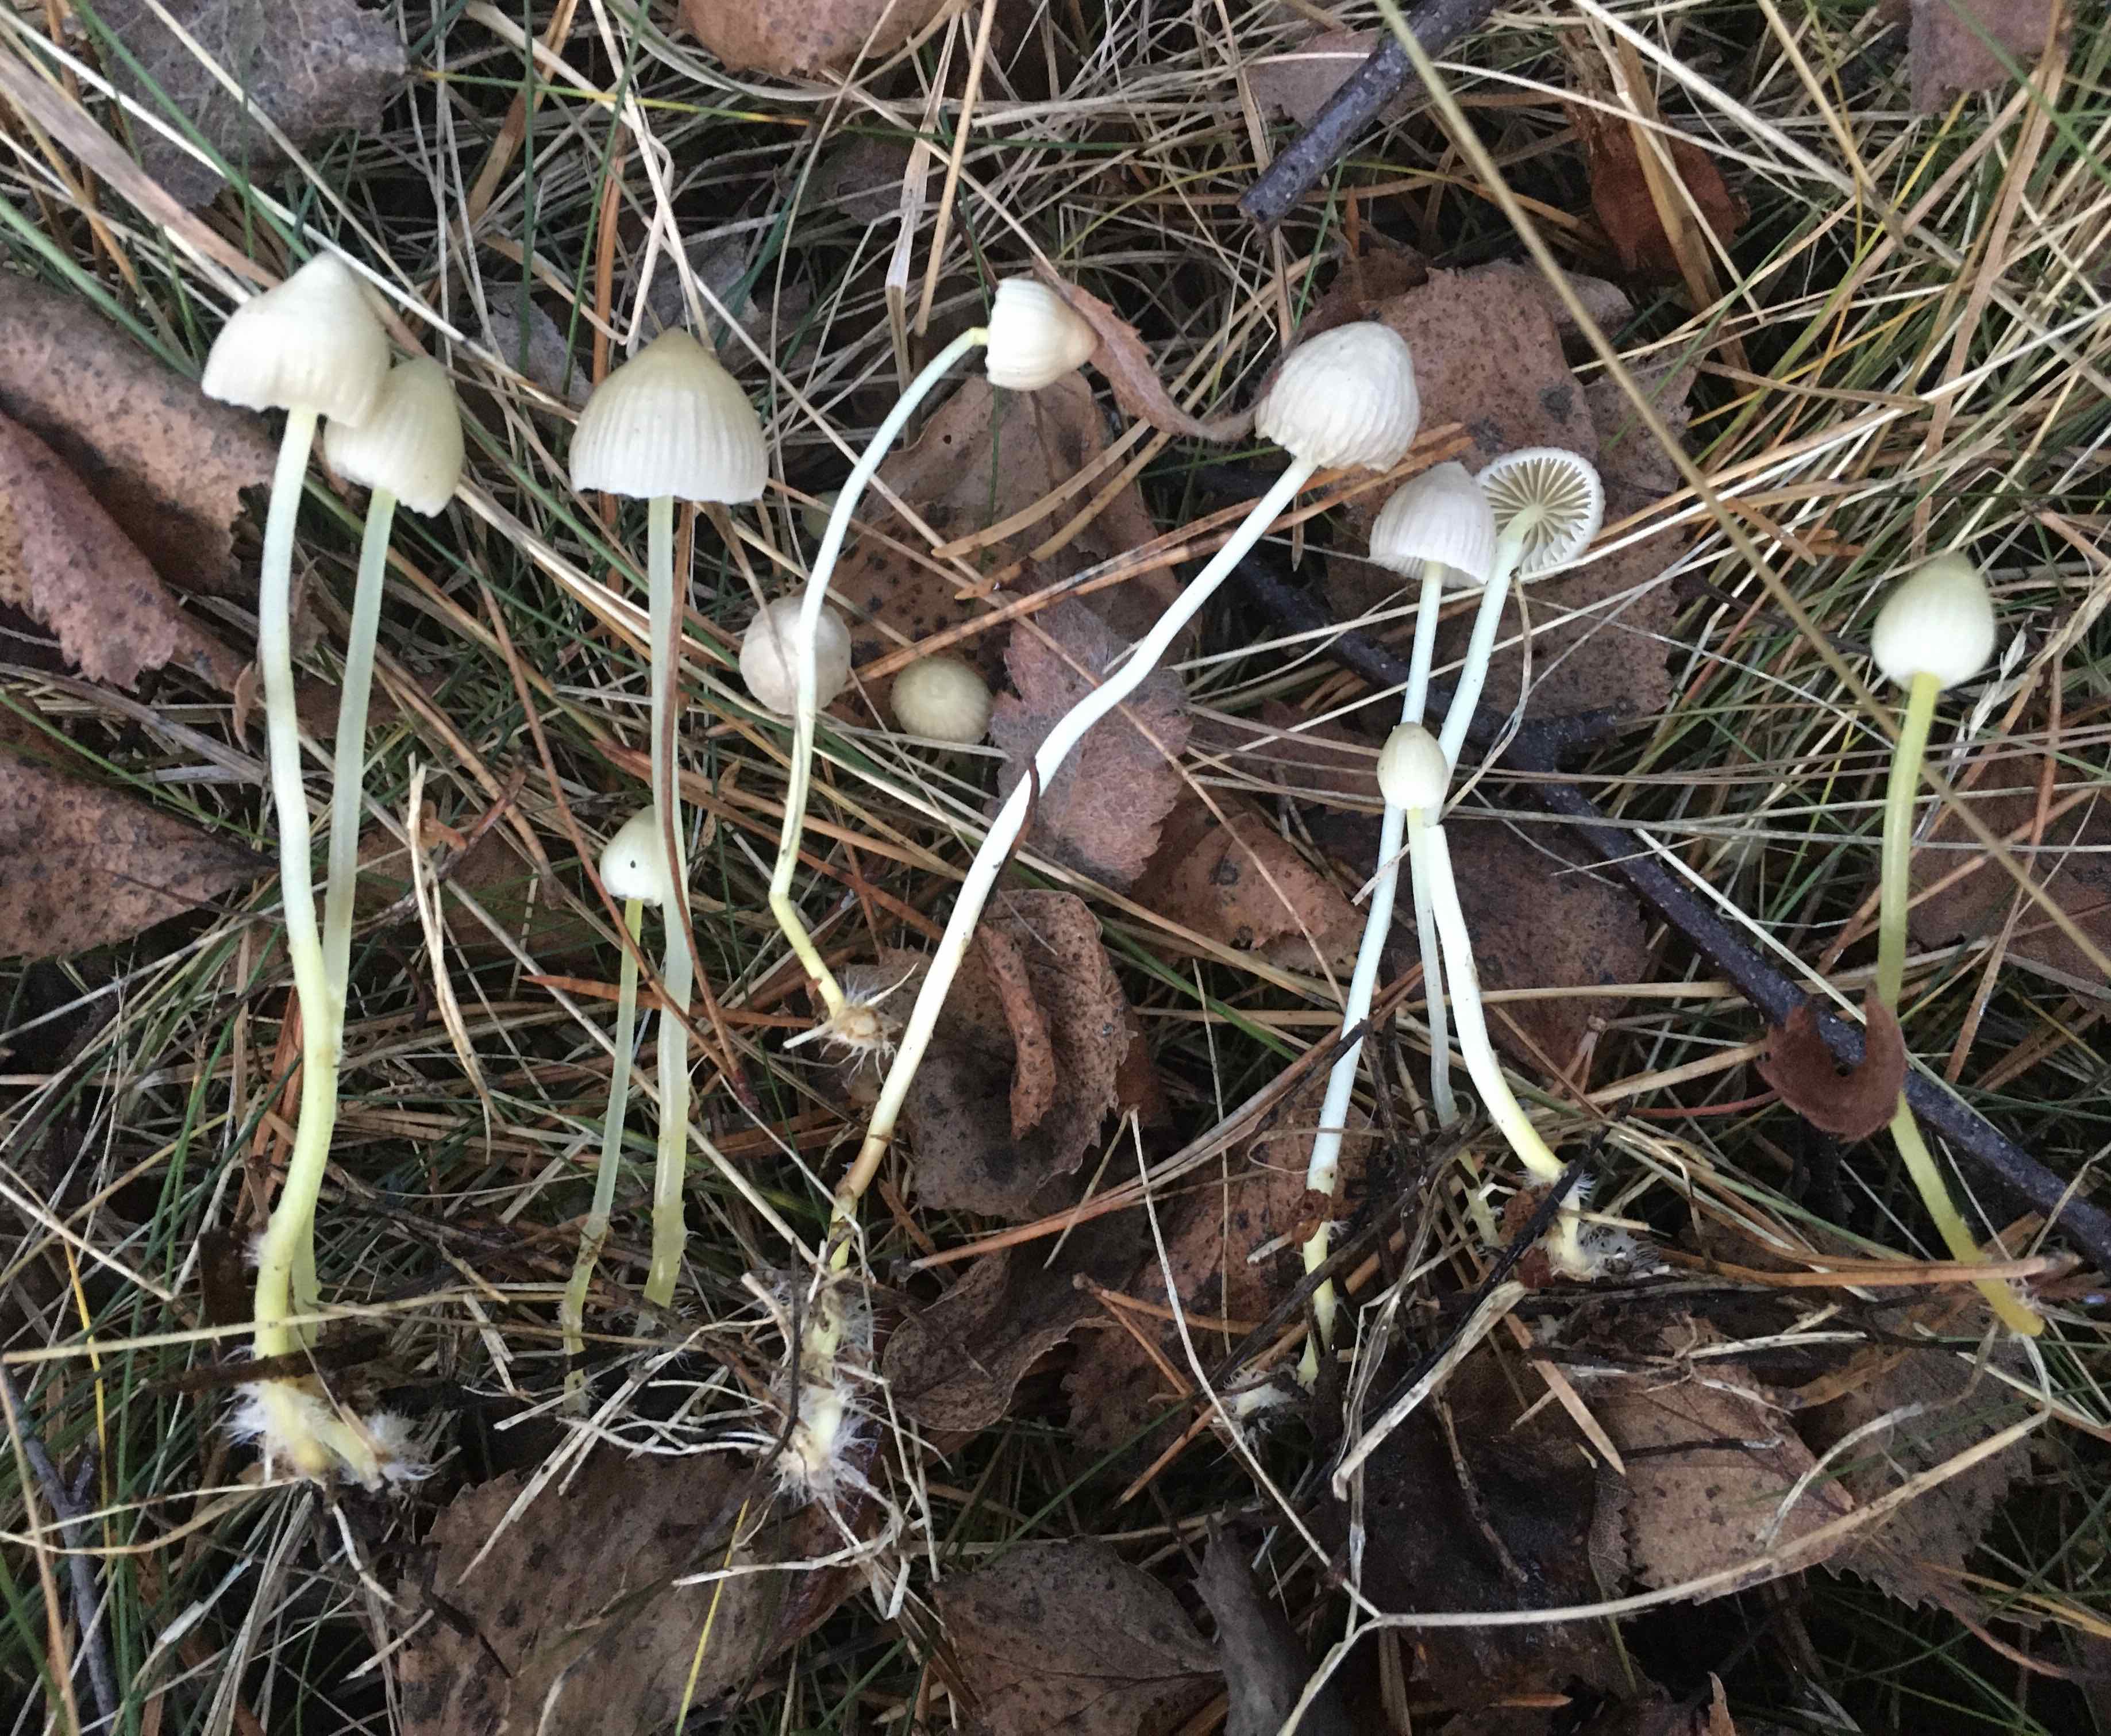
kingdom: Fungi
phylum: Basidiomycota
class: Agaricomycetes
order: Agaricales
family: Mycenaceae
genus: Mycena
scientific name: Mycena epipterygia
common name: gulstokket huesvamp
